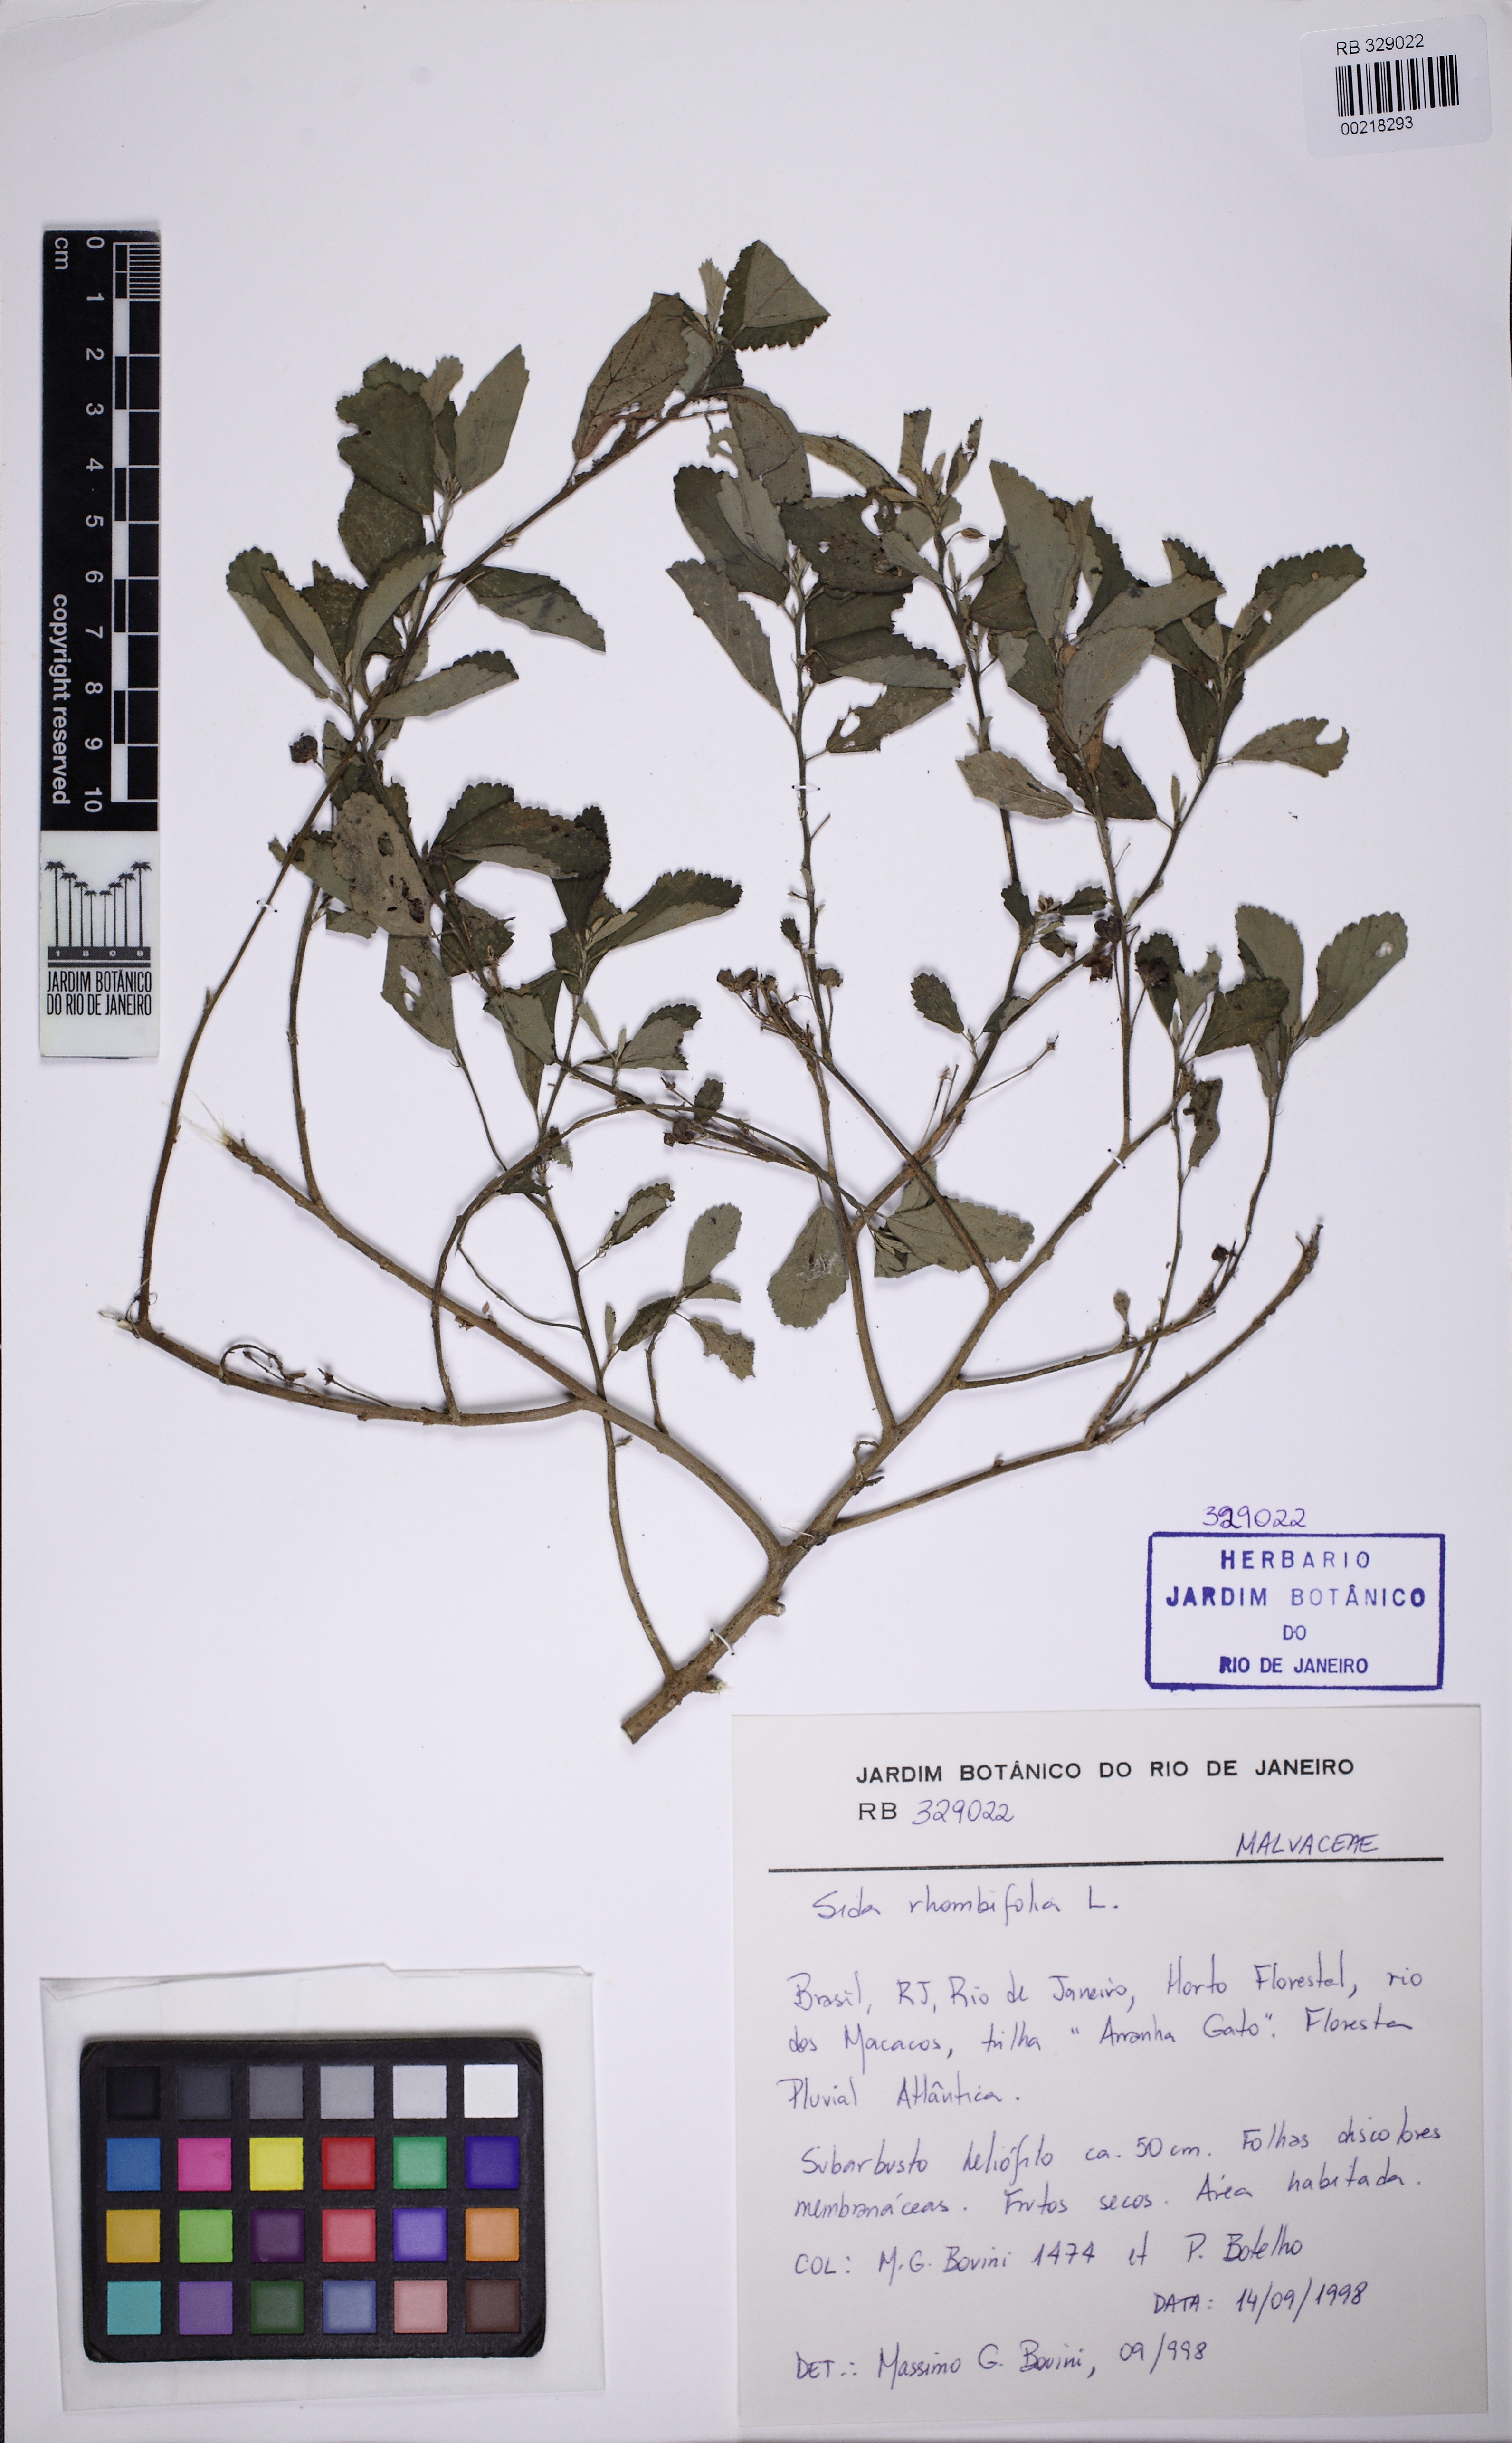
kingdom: Plantae
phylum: Tracheophyta
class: Magnoliopsida
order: Malvales
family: Malvaceae
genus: Sida
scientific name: Sida rhombifolia
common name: Queensland-hemp
